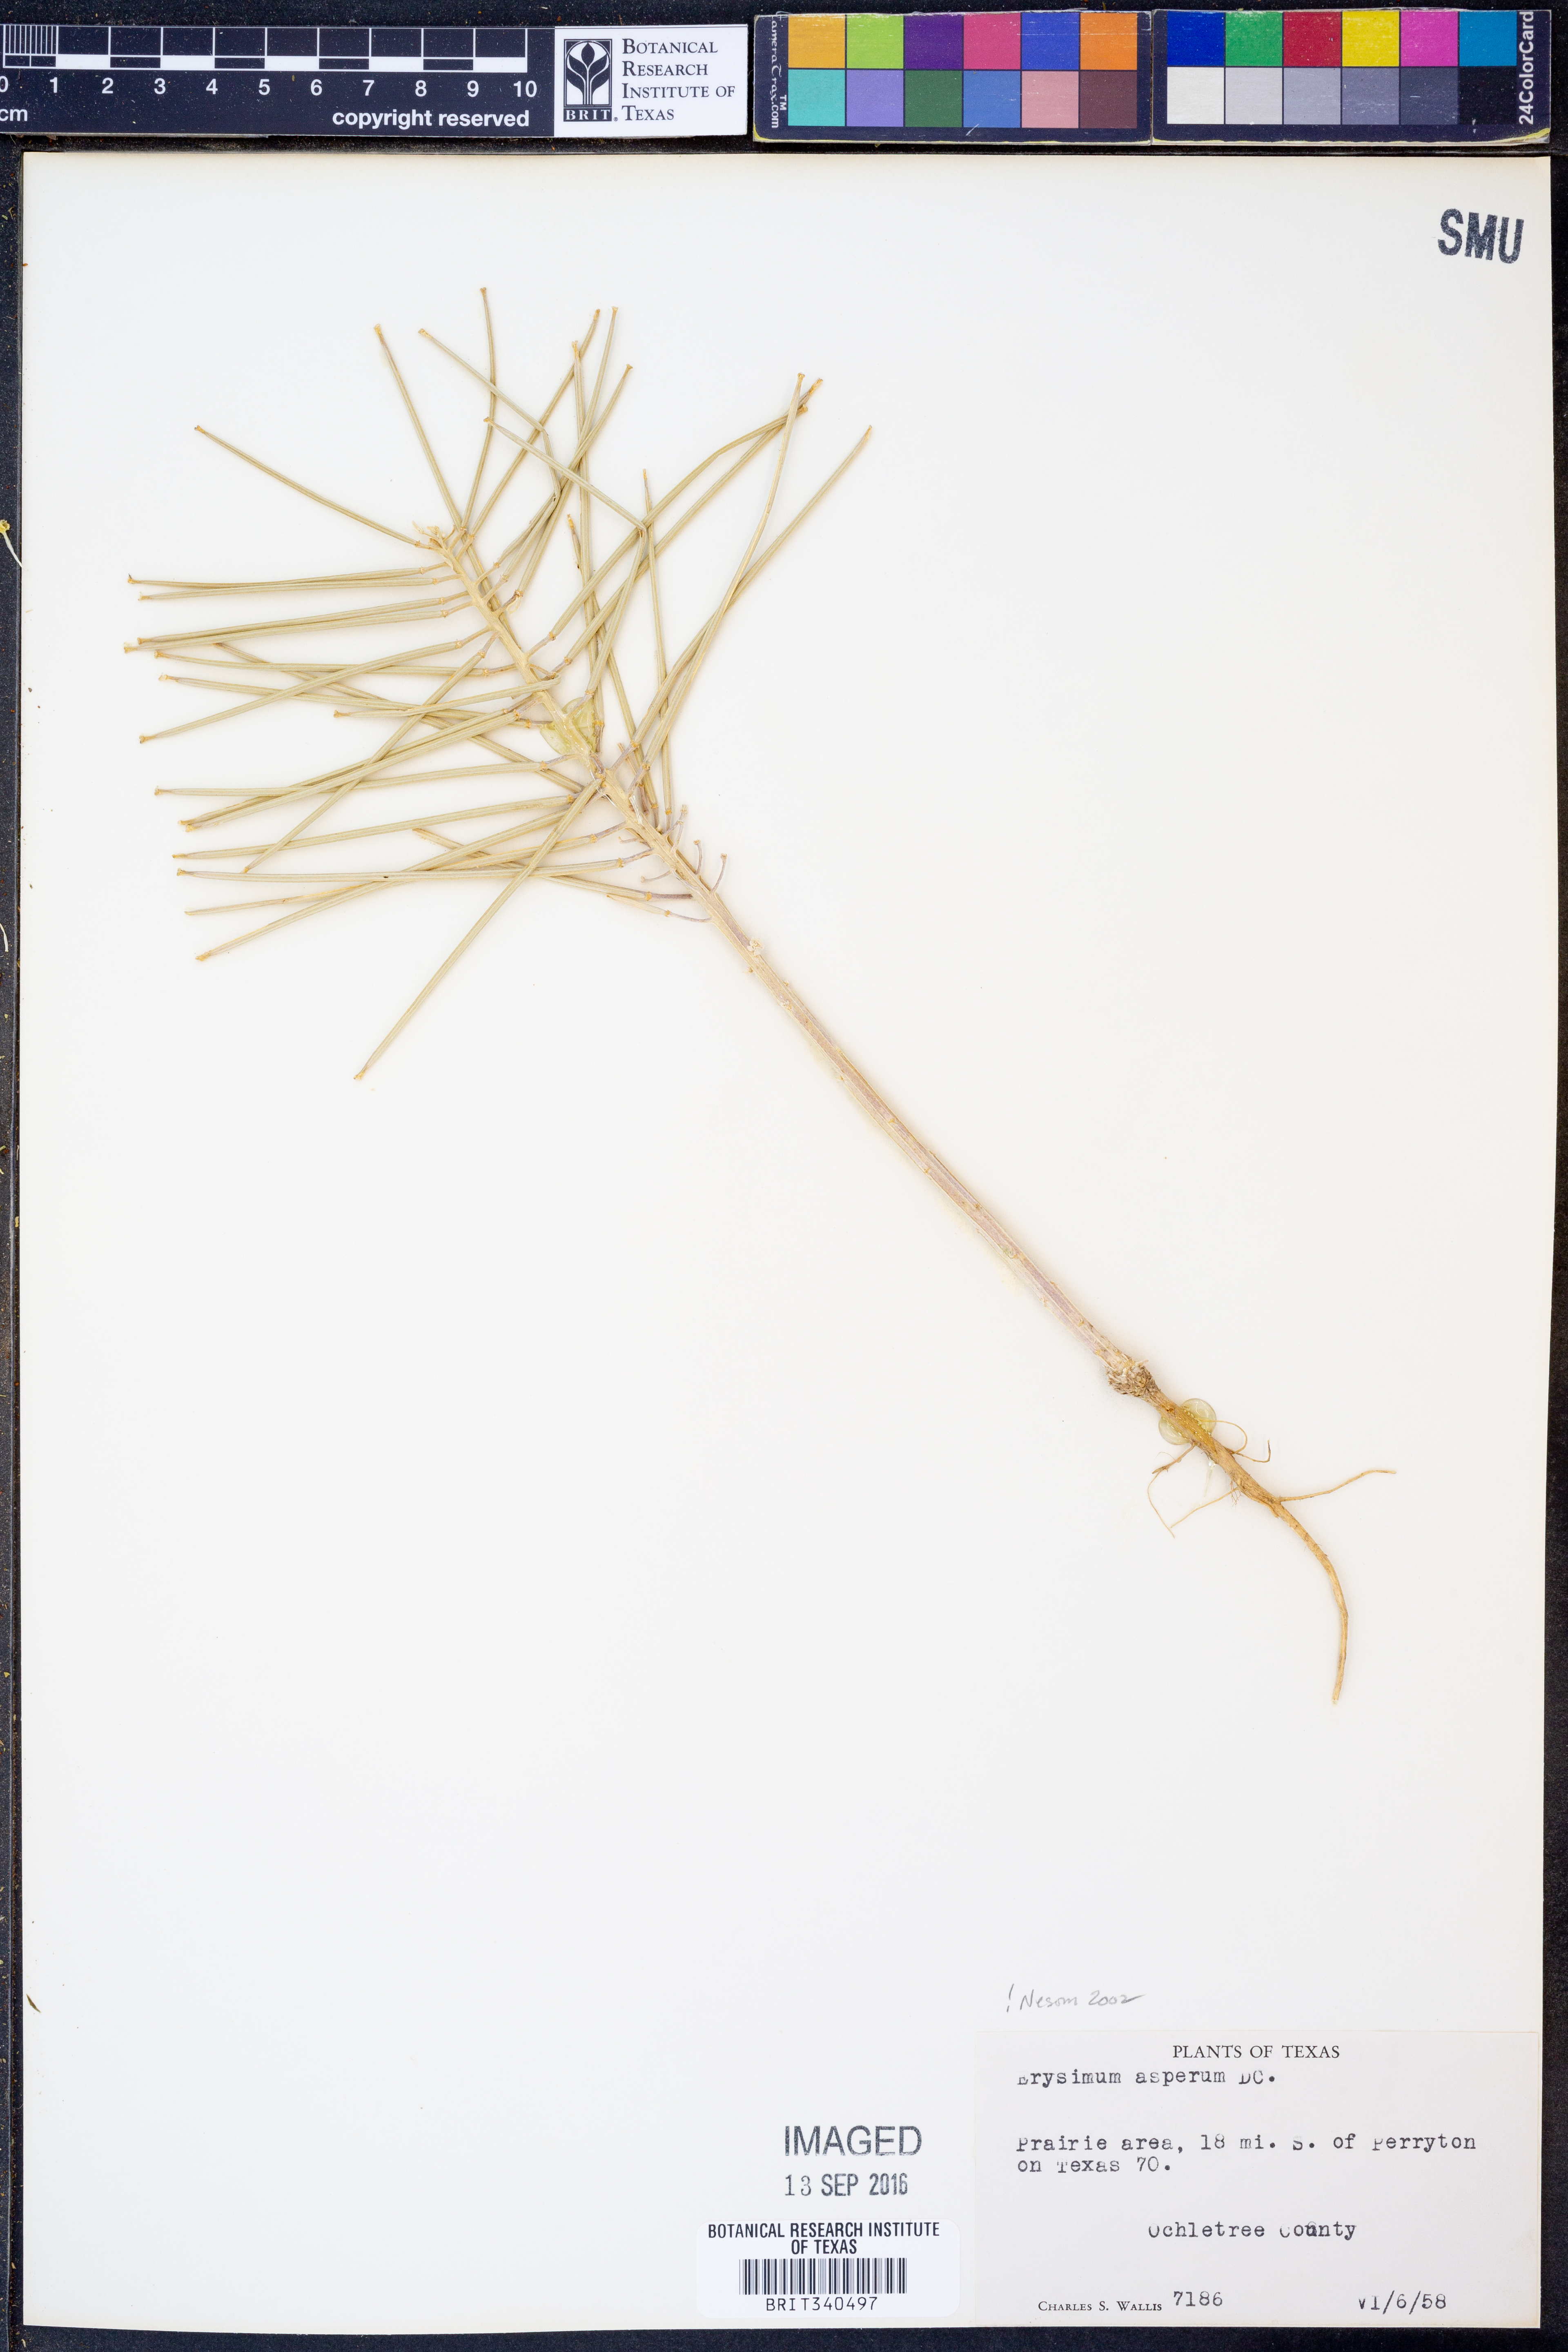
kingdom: Plantae
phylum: Tracheophyta
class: Magnoliopsida
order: Brassicales
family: Brassicaceae
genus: Erysimum
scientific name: Erysimum asperum
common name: Western wallflower
